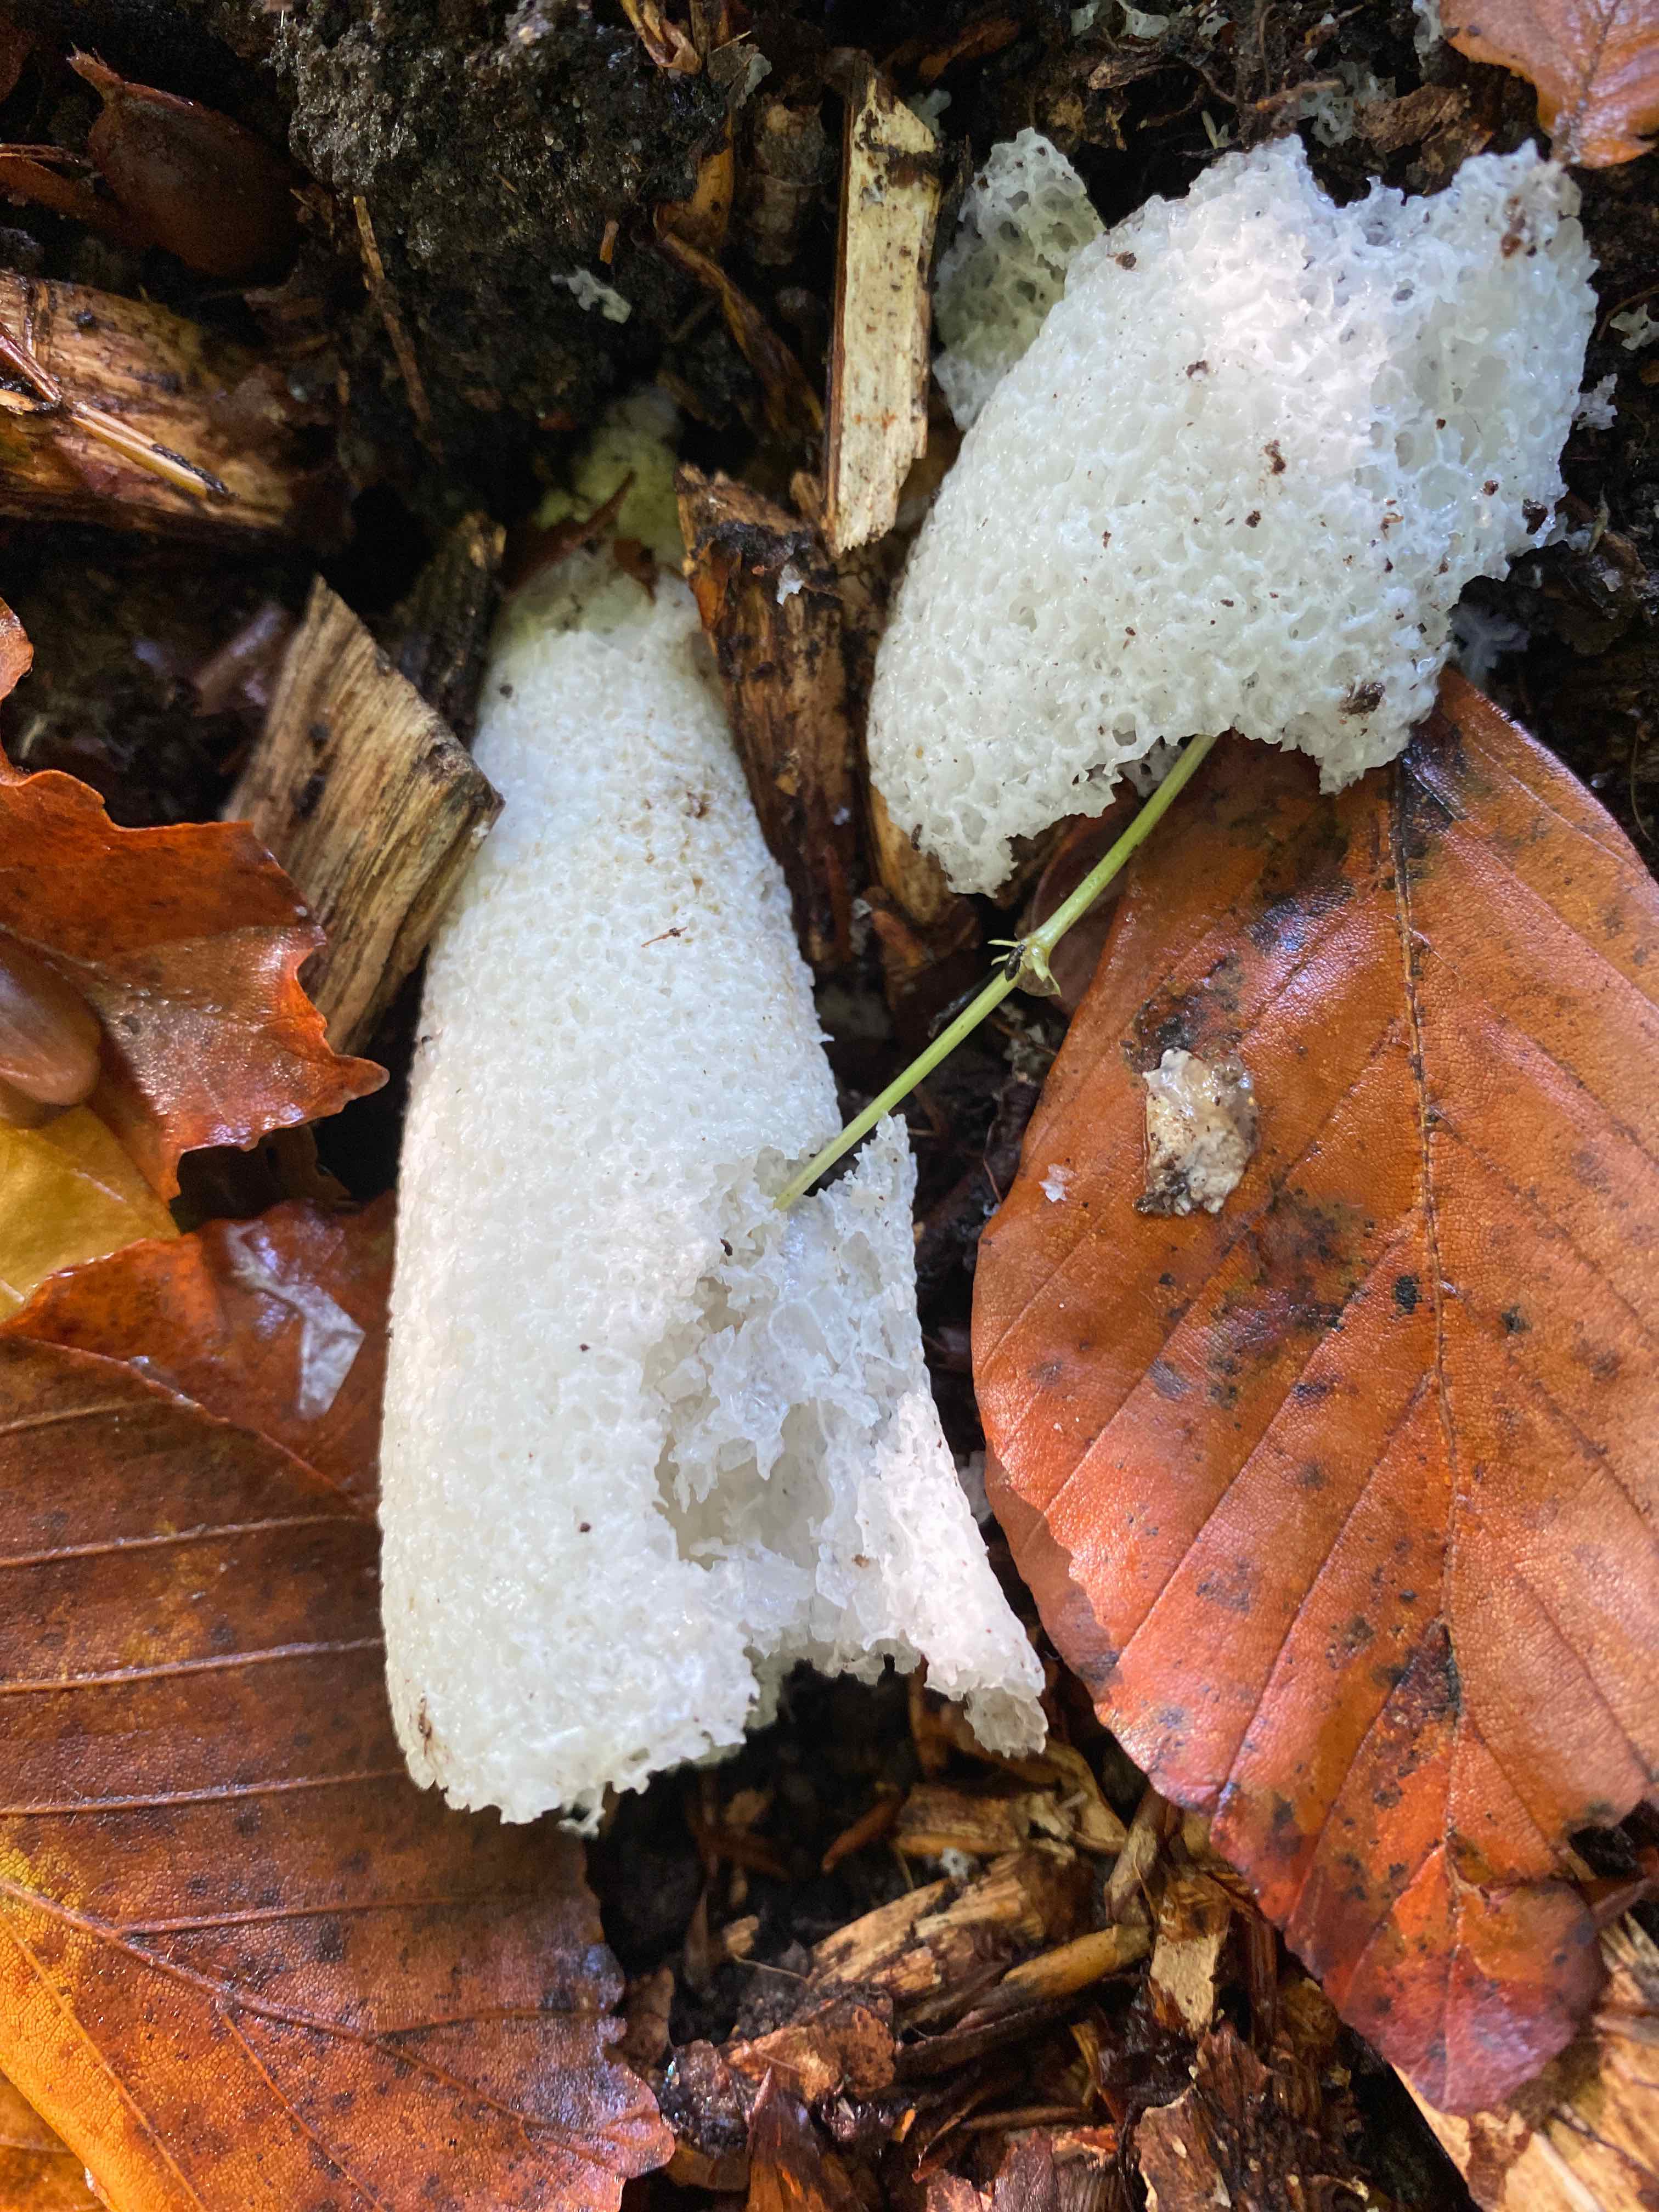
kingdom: Fungi
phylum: Basidiomycota
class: Agaricomycetes
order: Phallales
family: Phallaceae
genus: Phallus
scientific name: Phallus impudicus
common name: almindelig stinksvamp
